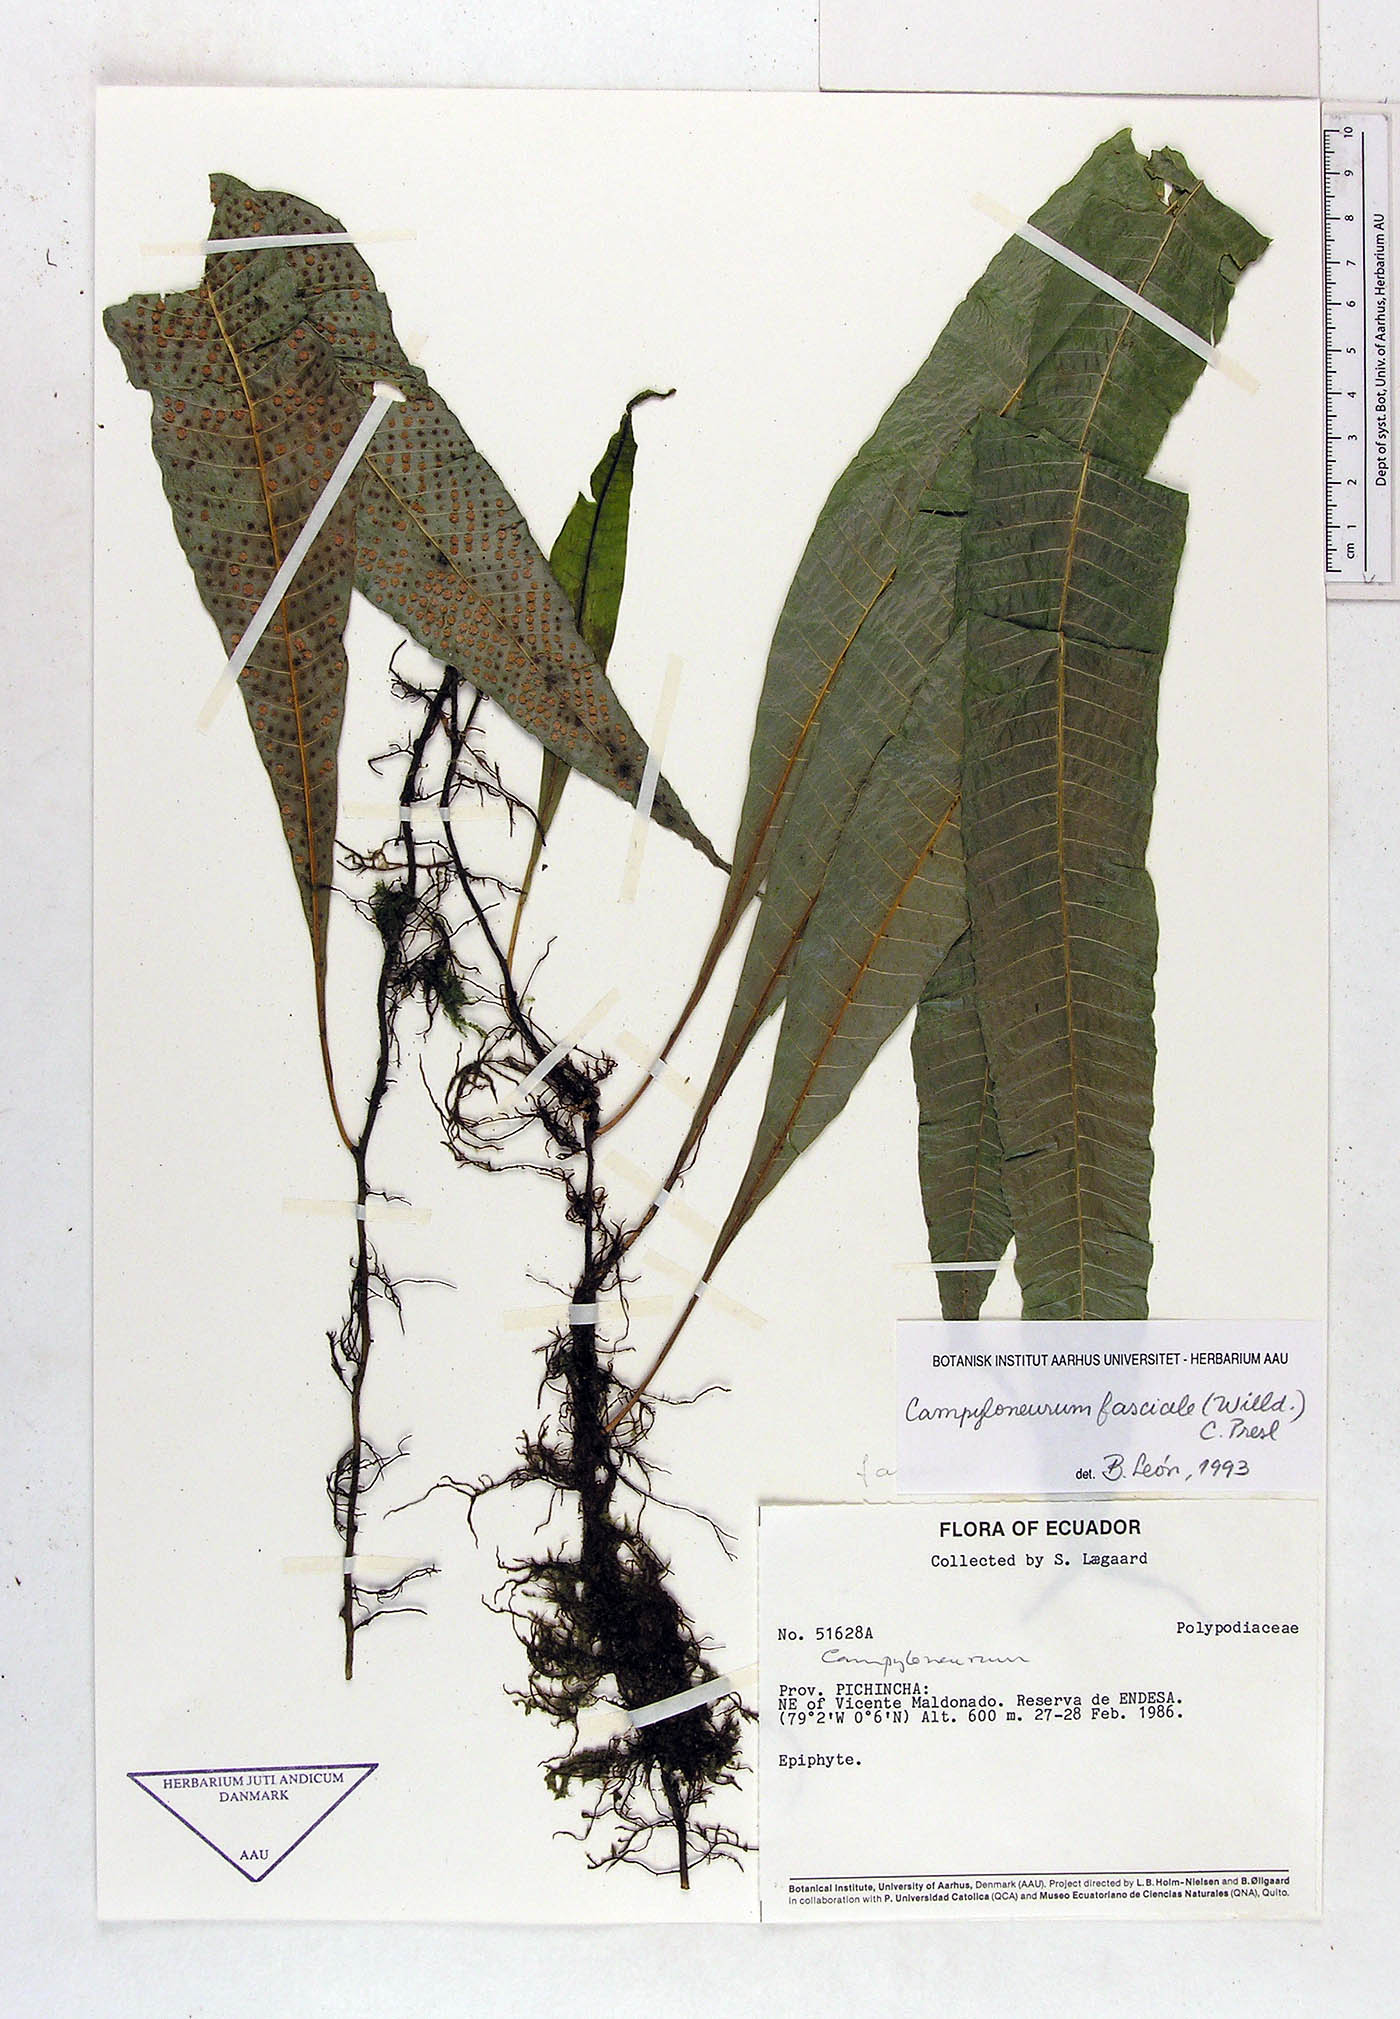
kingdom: Plantae
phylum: Tracheophyta
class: Polypodiopsida
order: Polypodiales
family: Polypodiaceae
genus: Campyloneurum
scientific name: Campyloneurum repens
